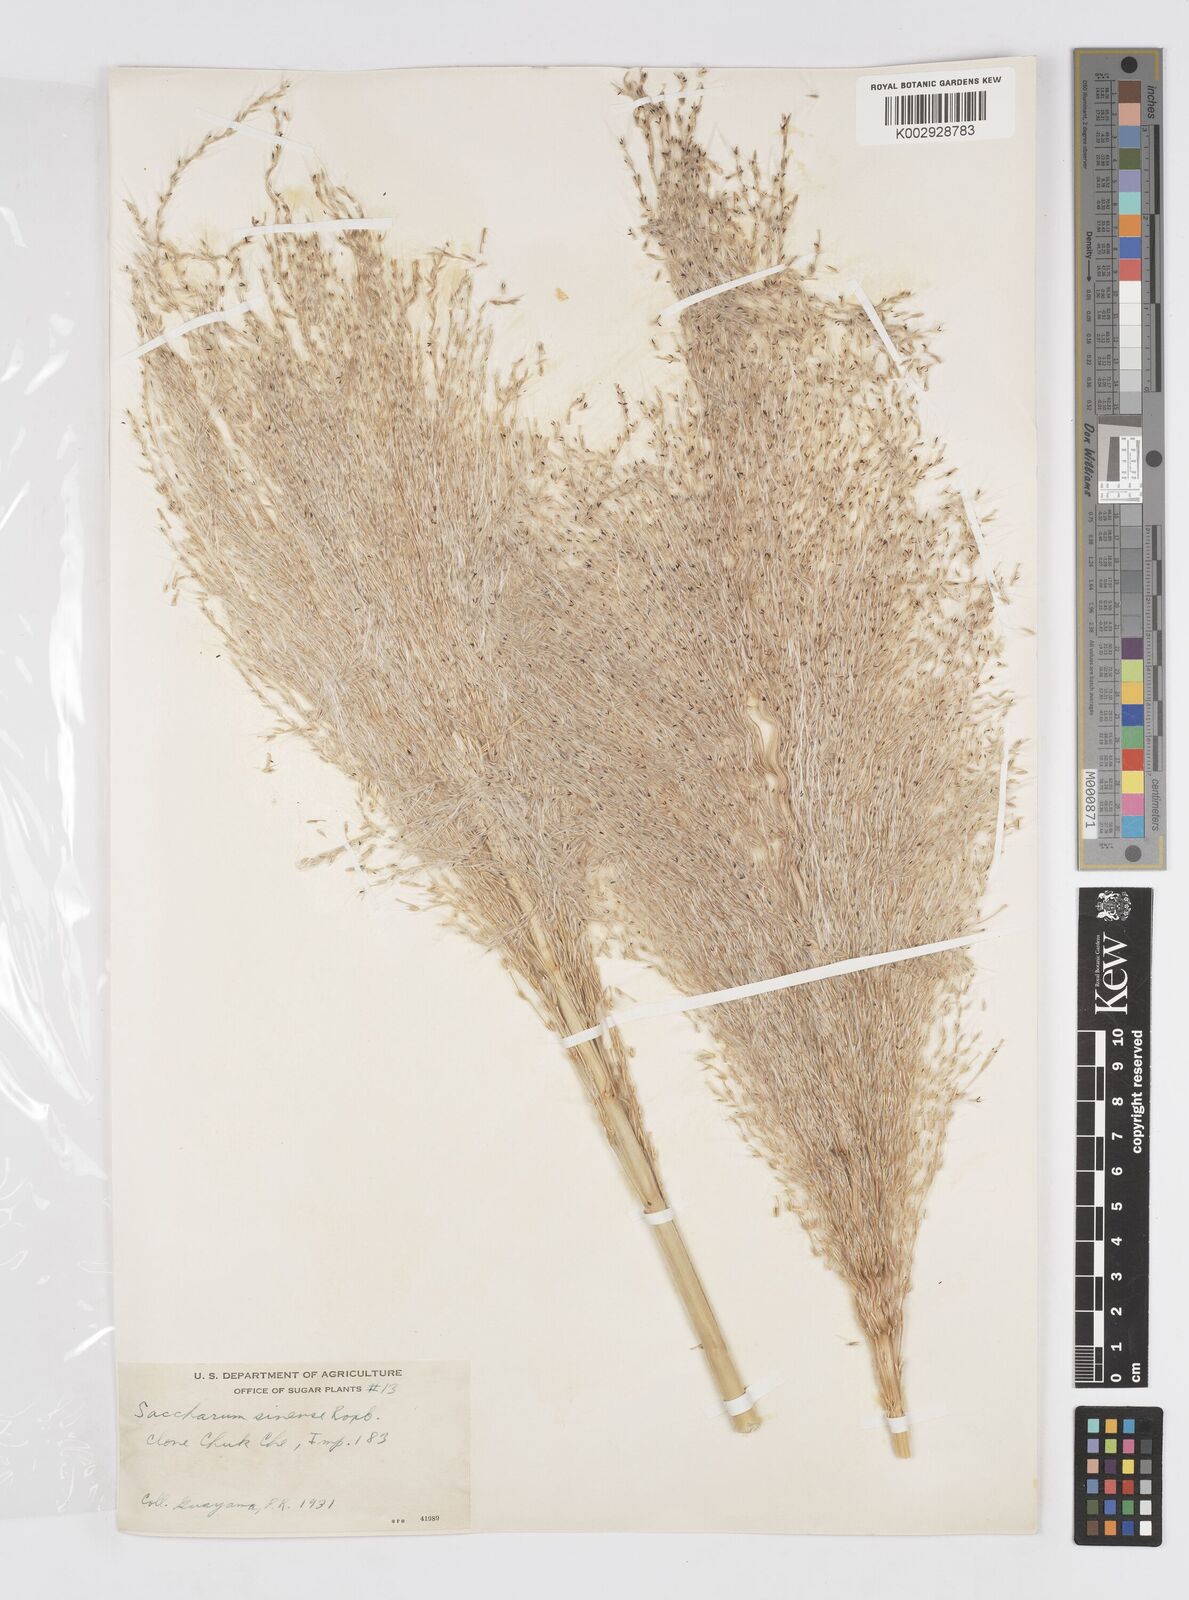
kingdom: Plantae
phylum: Tracheophyta
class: Liliopsida
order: Poales
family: Poaceae
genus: Saccharum
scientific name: Saccharum officinarum
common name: Sugarcane
